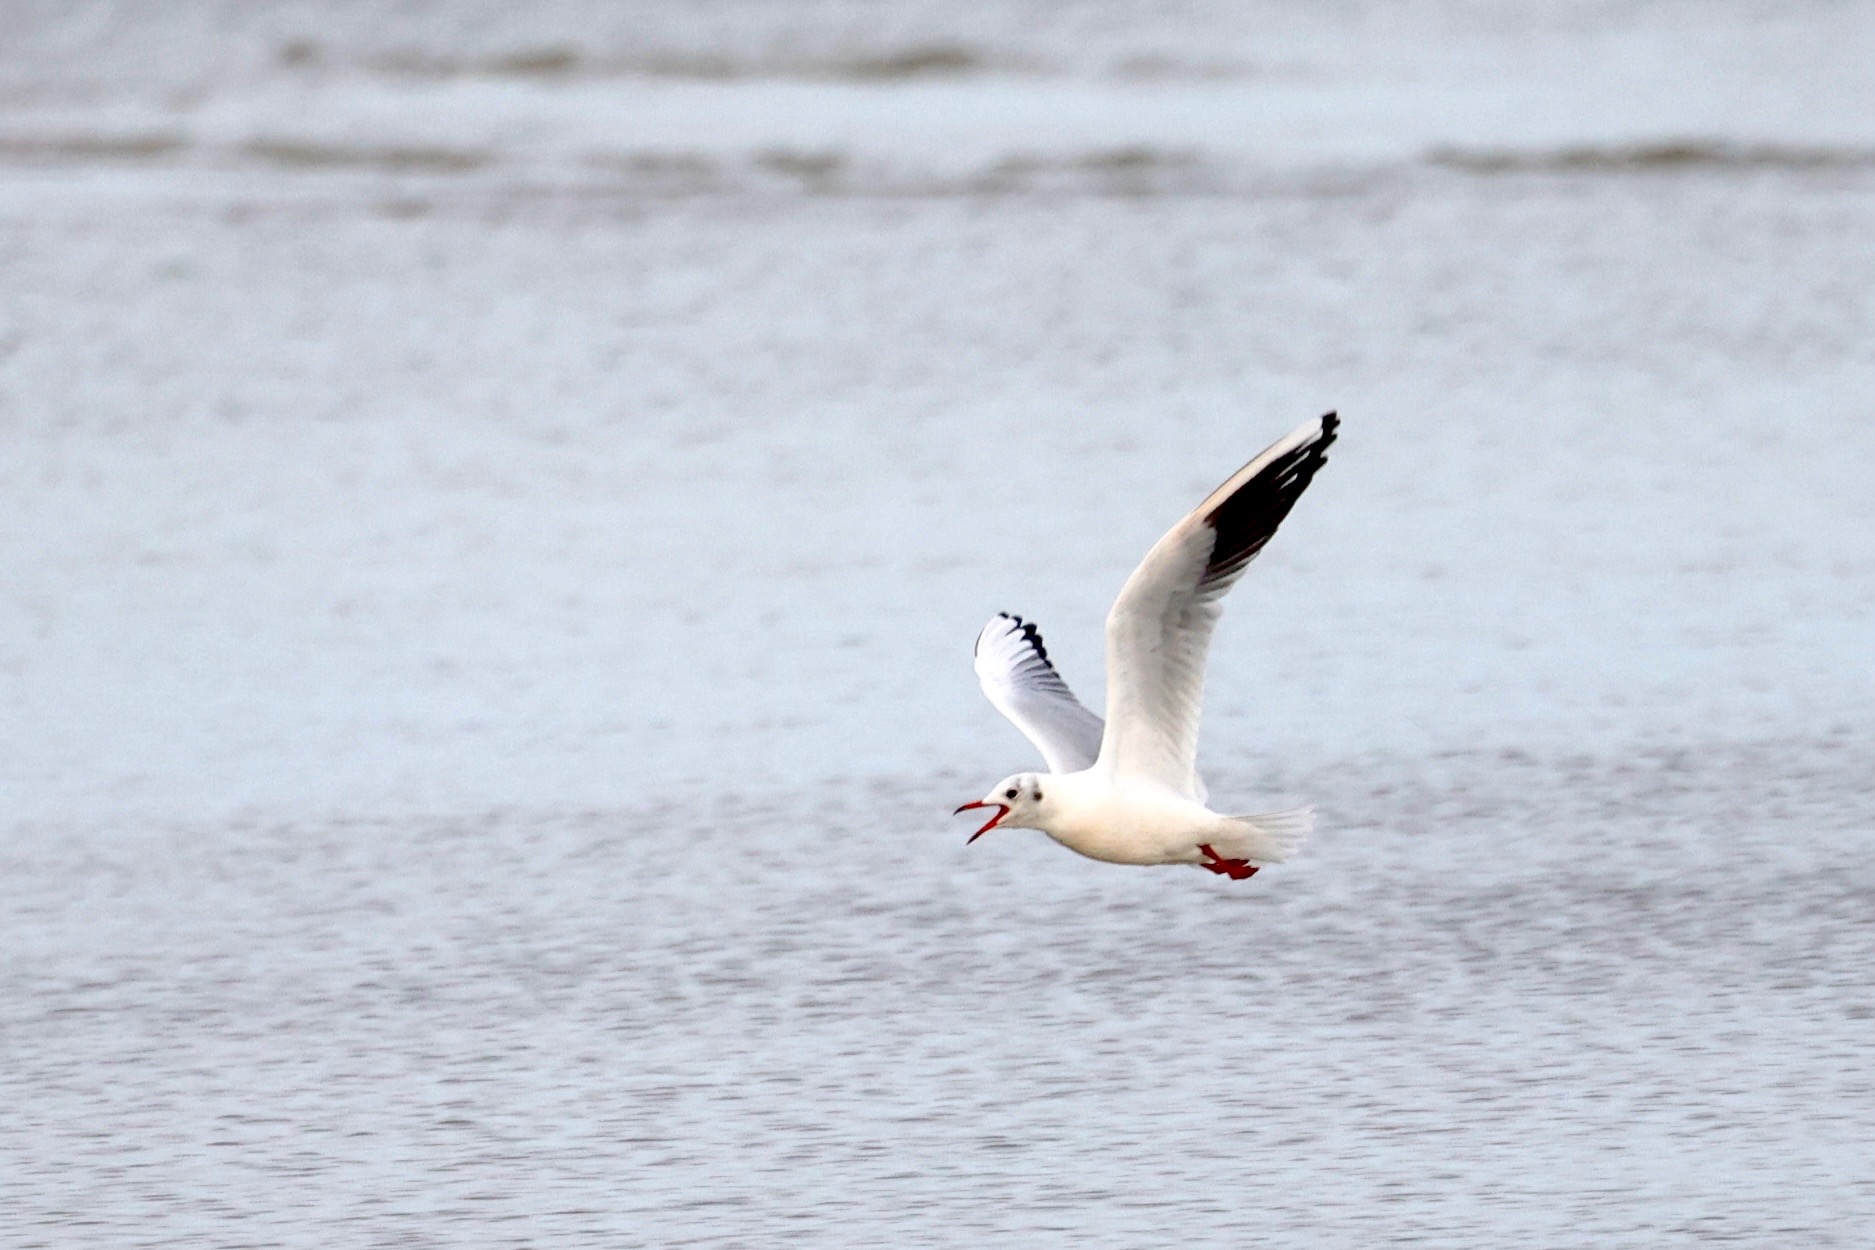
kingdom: Animalia
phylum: Chordata
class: Aves
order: Charadriiformes
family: Laridae
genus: Chroicocephalus
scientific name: Chroicocephalus ridibundus
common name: Hættemåge
